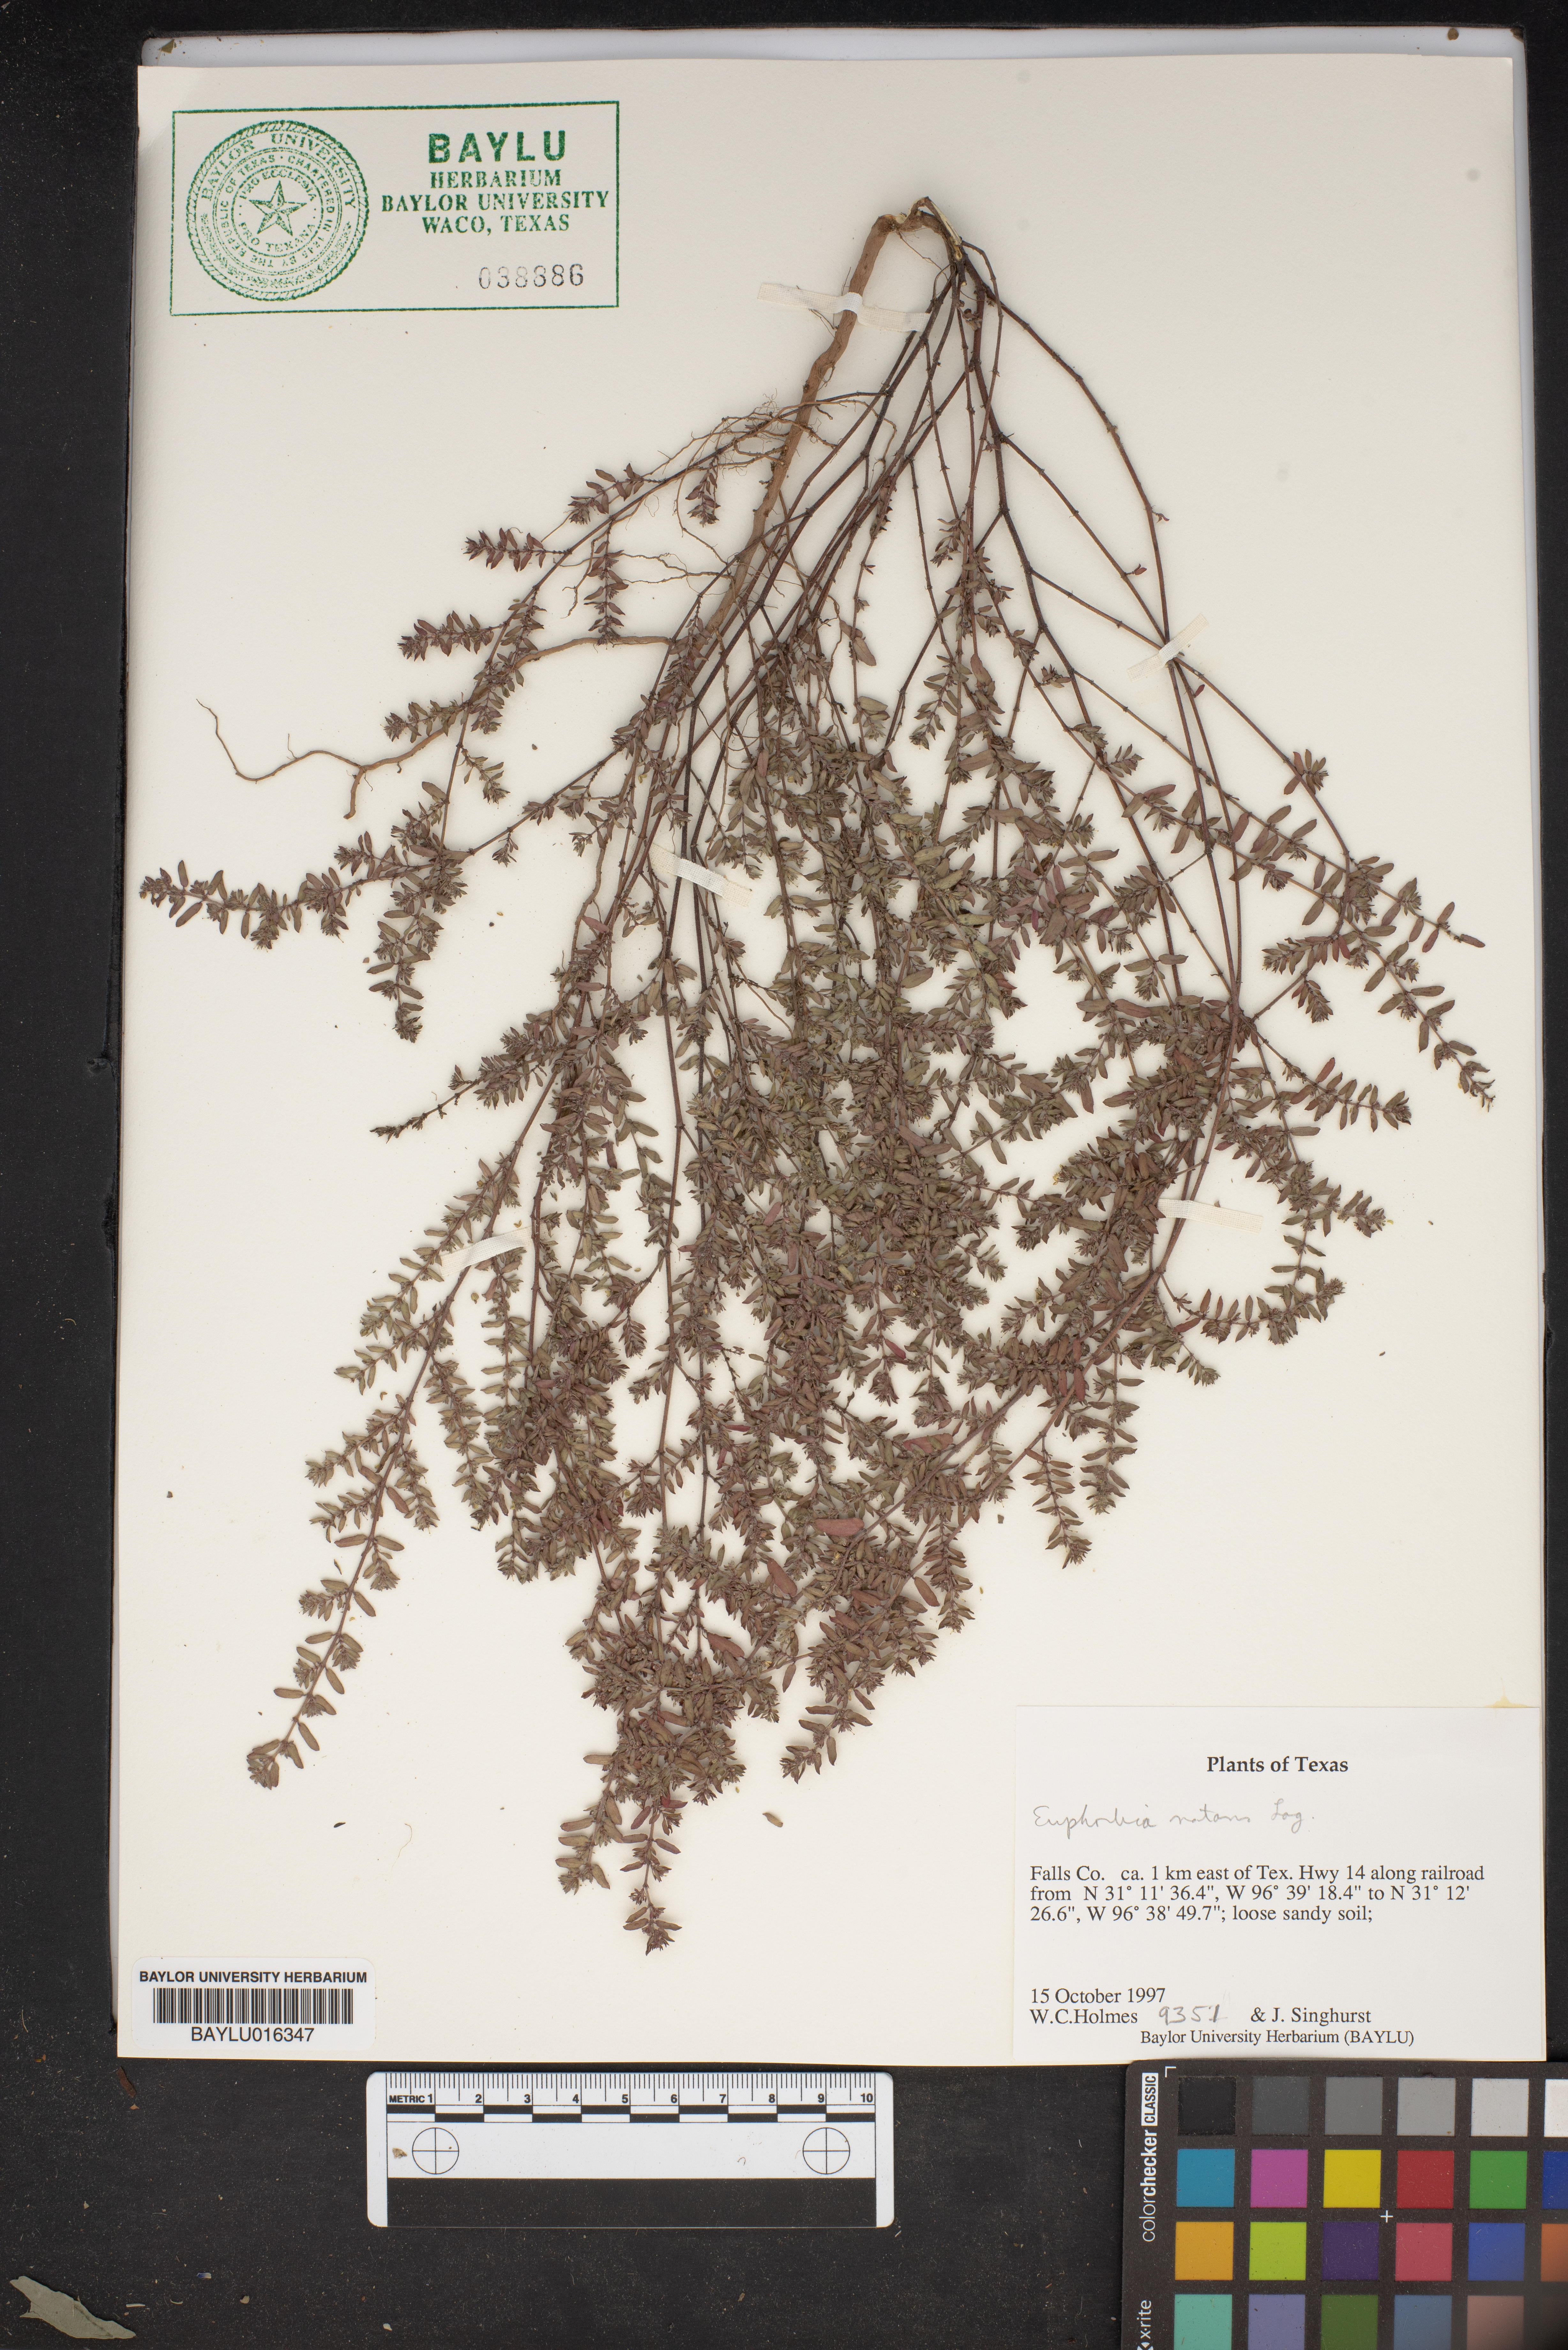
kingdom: Plantae
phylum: Tracheophyta
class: Magnoliopsida
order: Malpighiales
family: Euphorbiaceae
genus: Euphorbia
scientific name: Euphorbia nutans
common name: Eyebane
